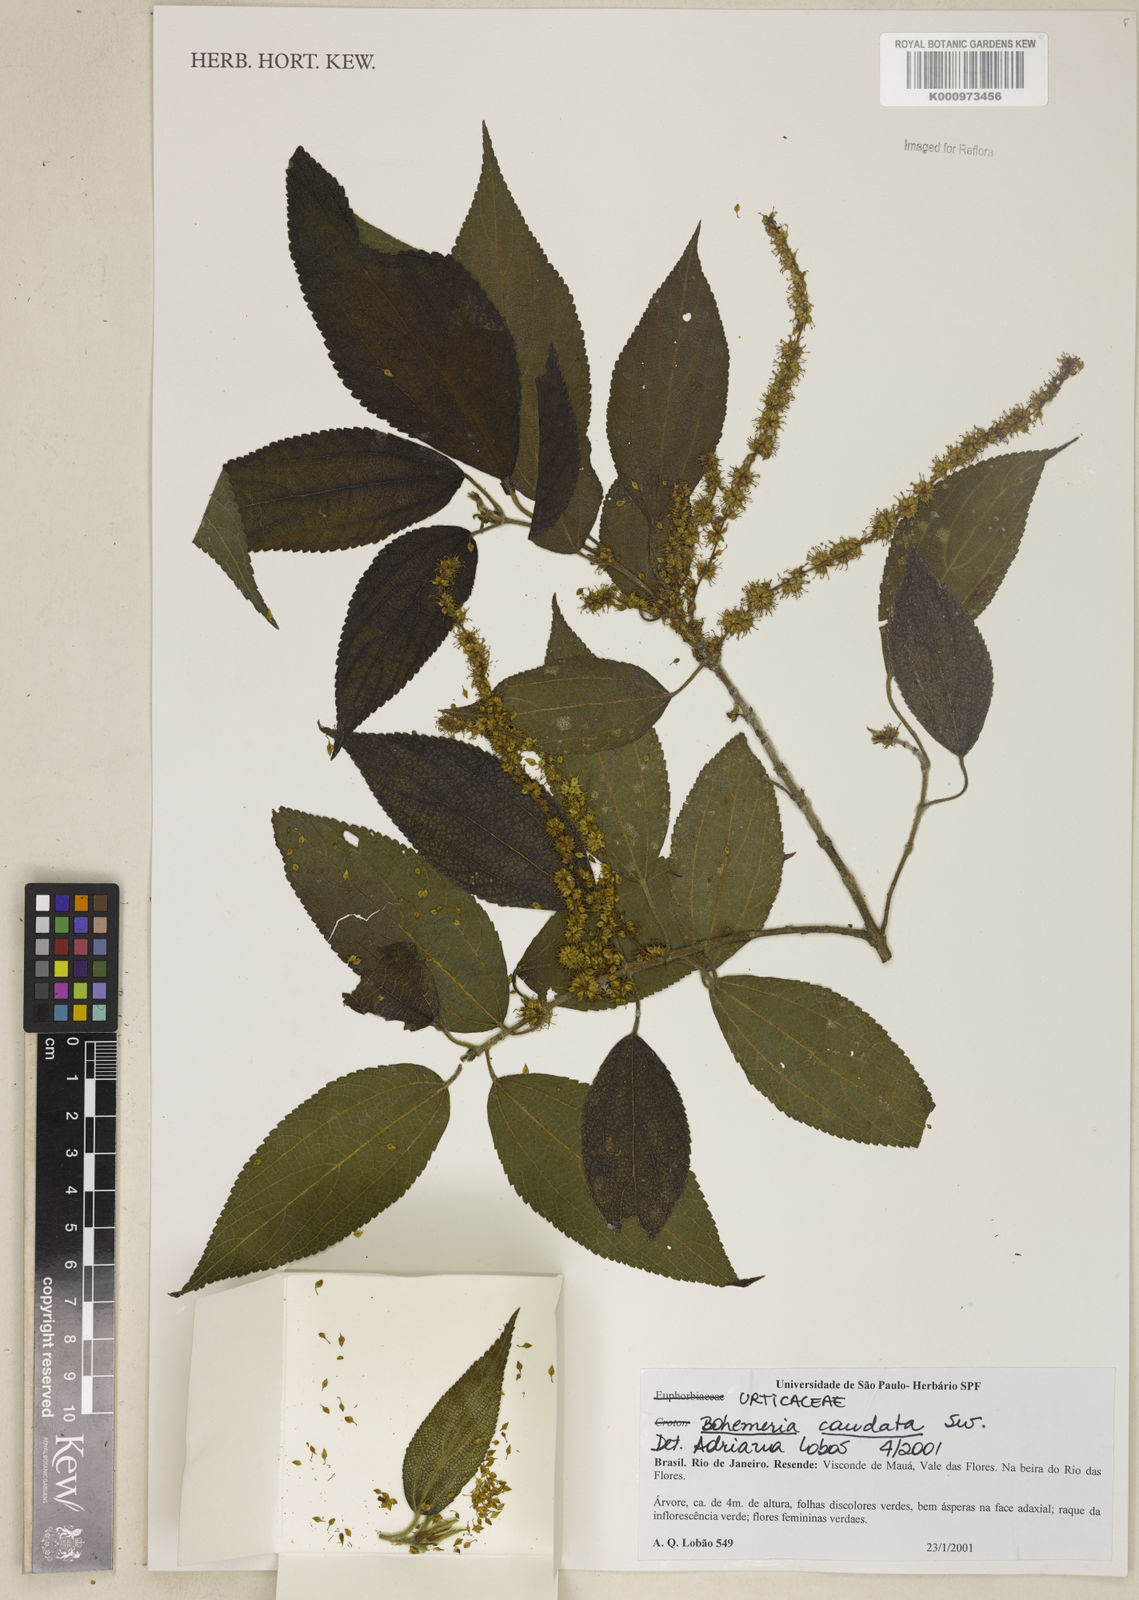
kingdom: Plantae
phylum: Tracheophyta
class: Magnoliopsida
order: Rosales
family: Urticaceae
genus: Boehmeria
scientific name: Boehmeria caudata
